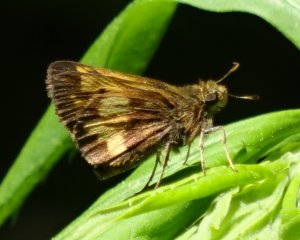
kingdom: Animalia
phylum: Arthropoda
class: Insecta
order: Lepidoptera
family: Hesperiidae
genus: Lon
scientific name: Lon hobomok
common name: Hobomok Skipper
